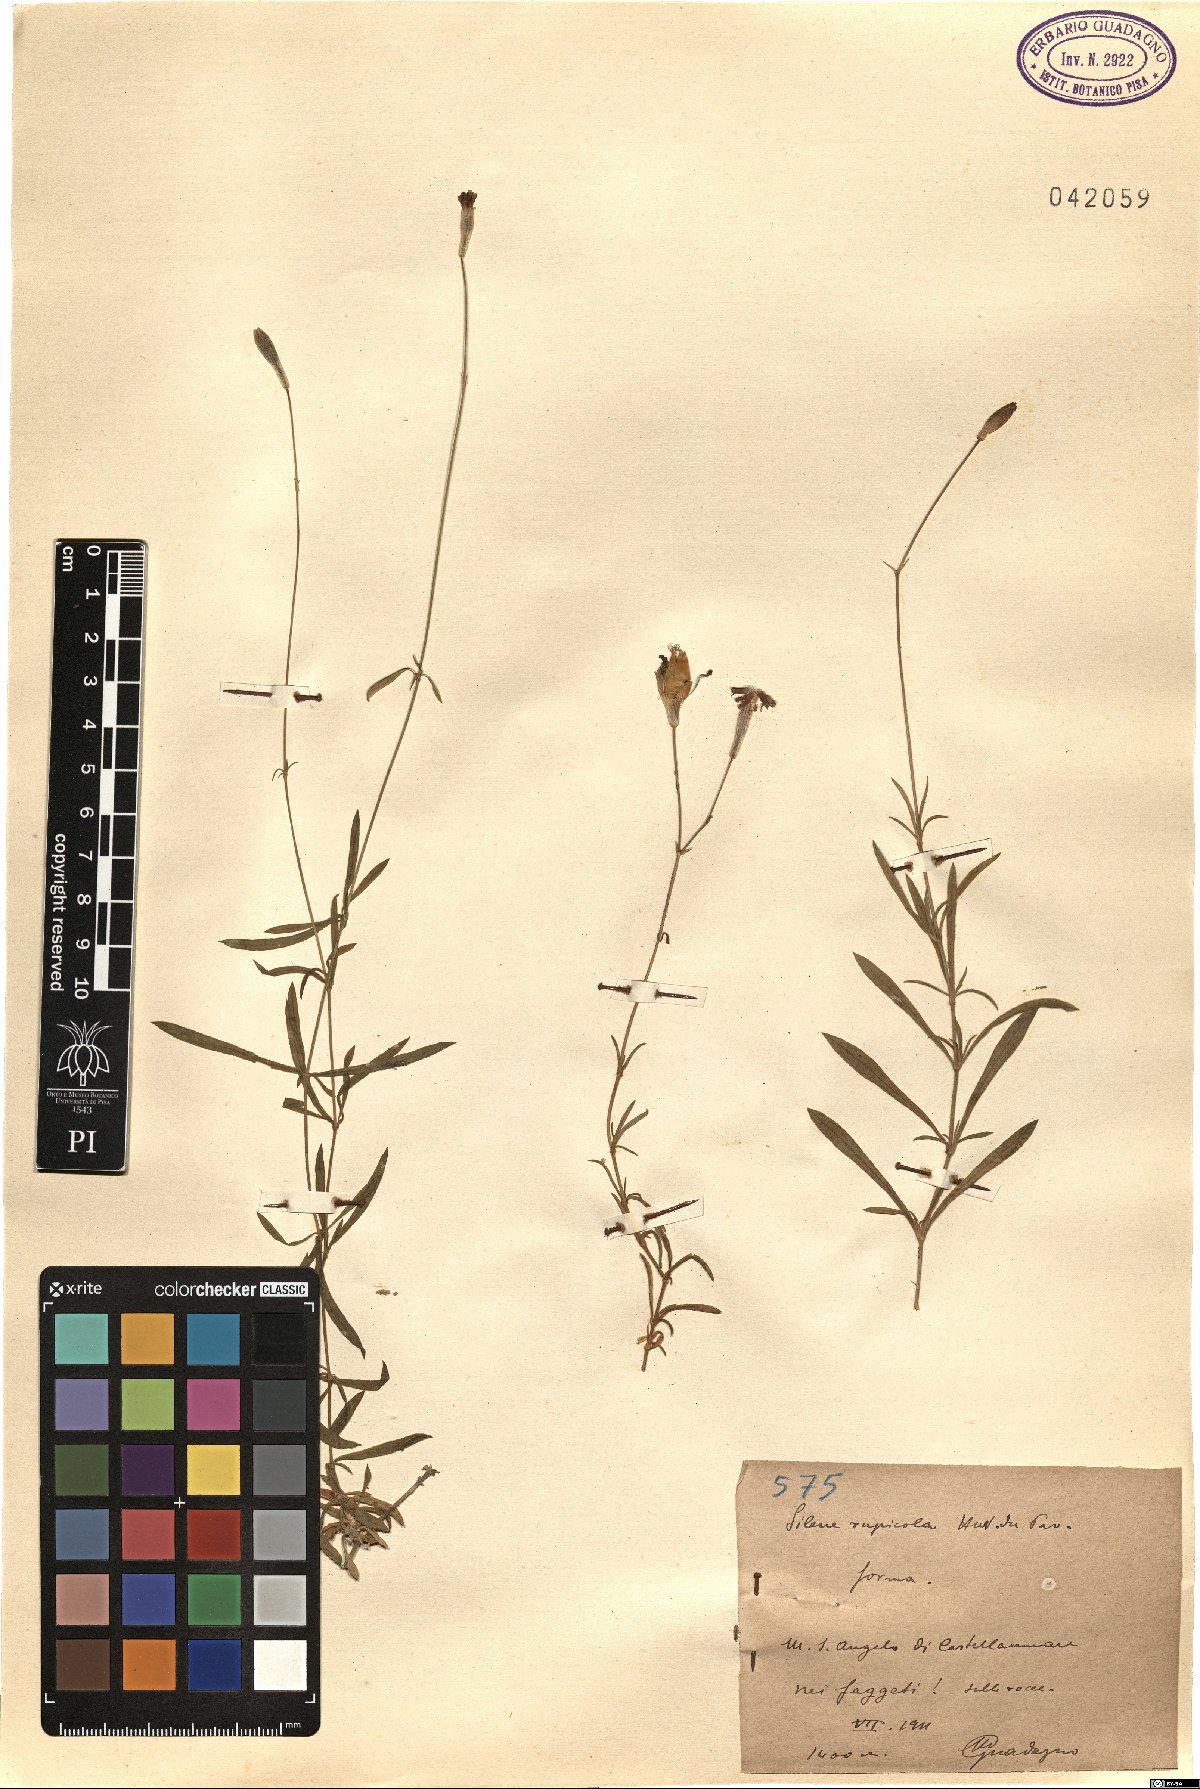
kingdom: Plantae
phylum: Tracheophyta
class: Magnoliopsida
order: Caryophyllales
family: Caryophyllaceae
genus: Silene
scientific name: Silene saxifraga
